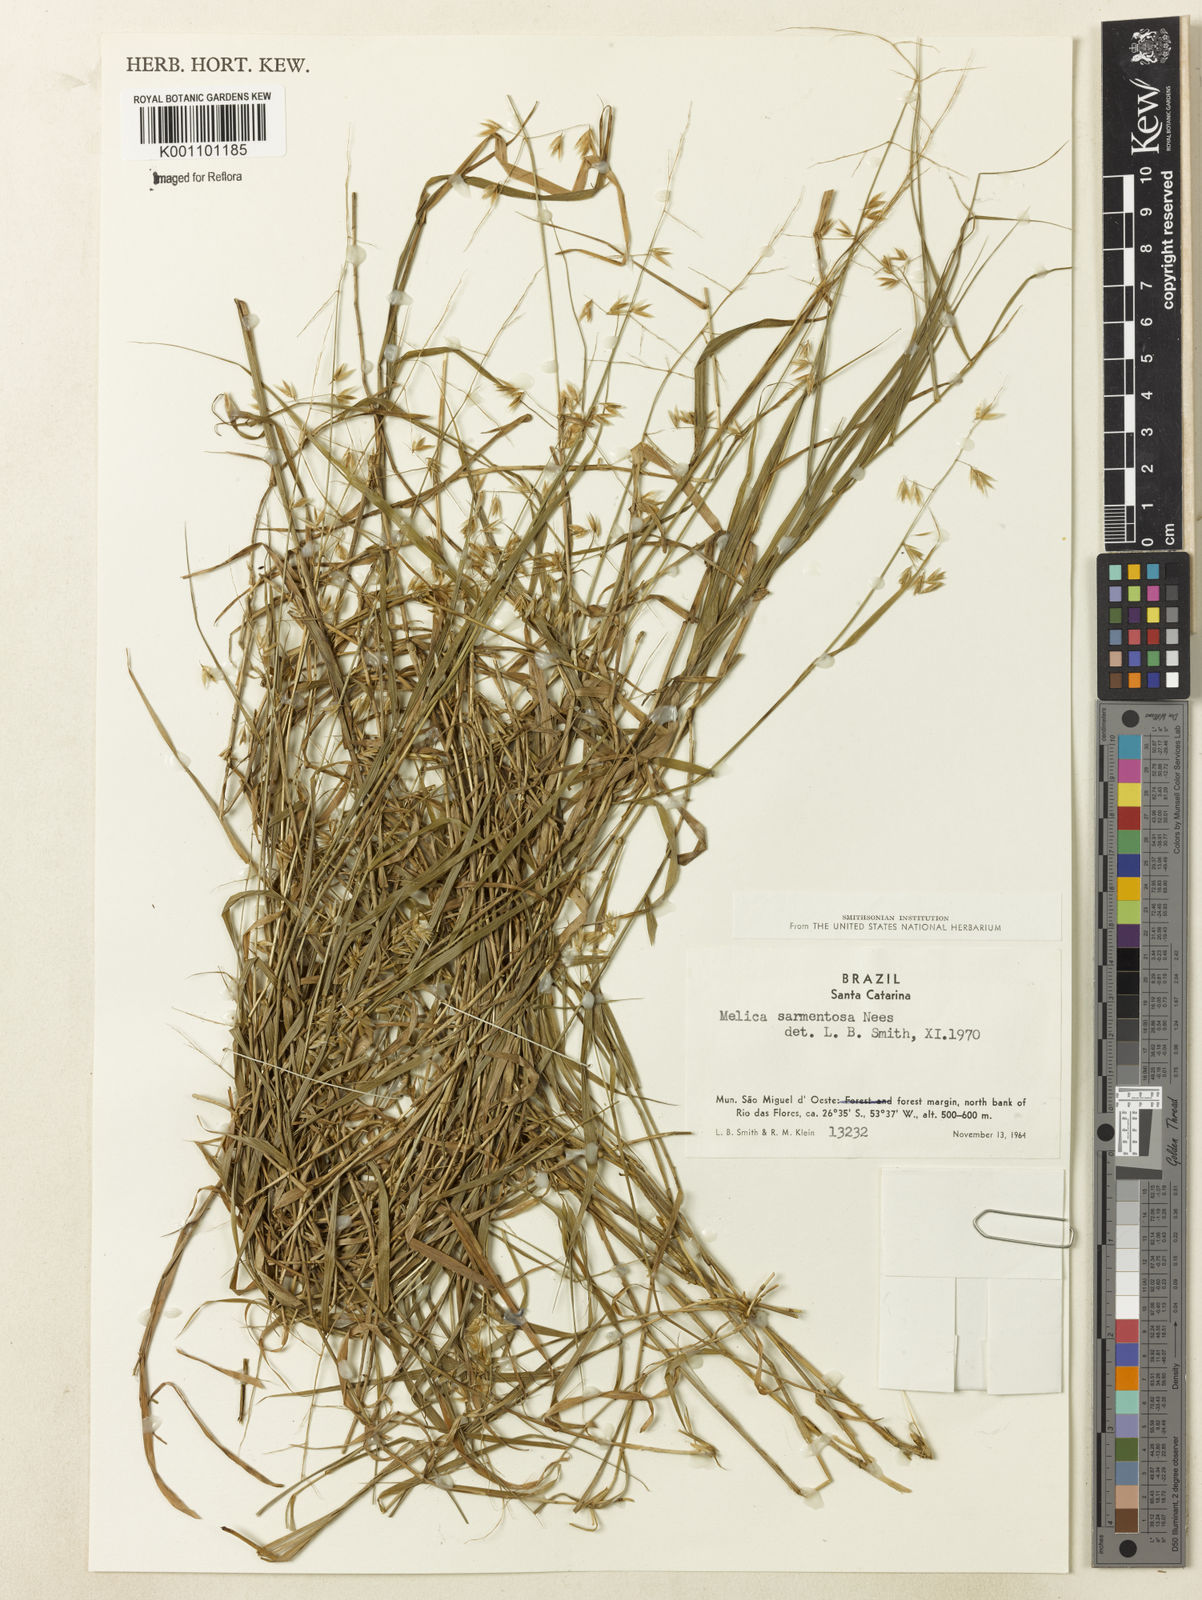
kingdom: Plantae
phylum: Tracheophyta
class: Liliopsida
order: Poales
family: Poaceae
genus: Melica
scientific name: Melica sarmentosa
